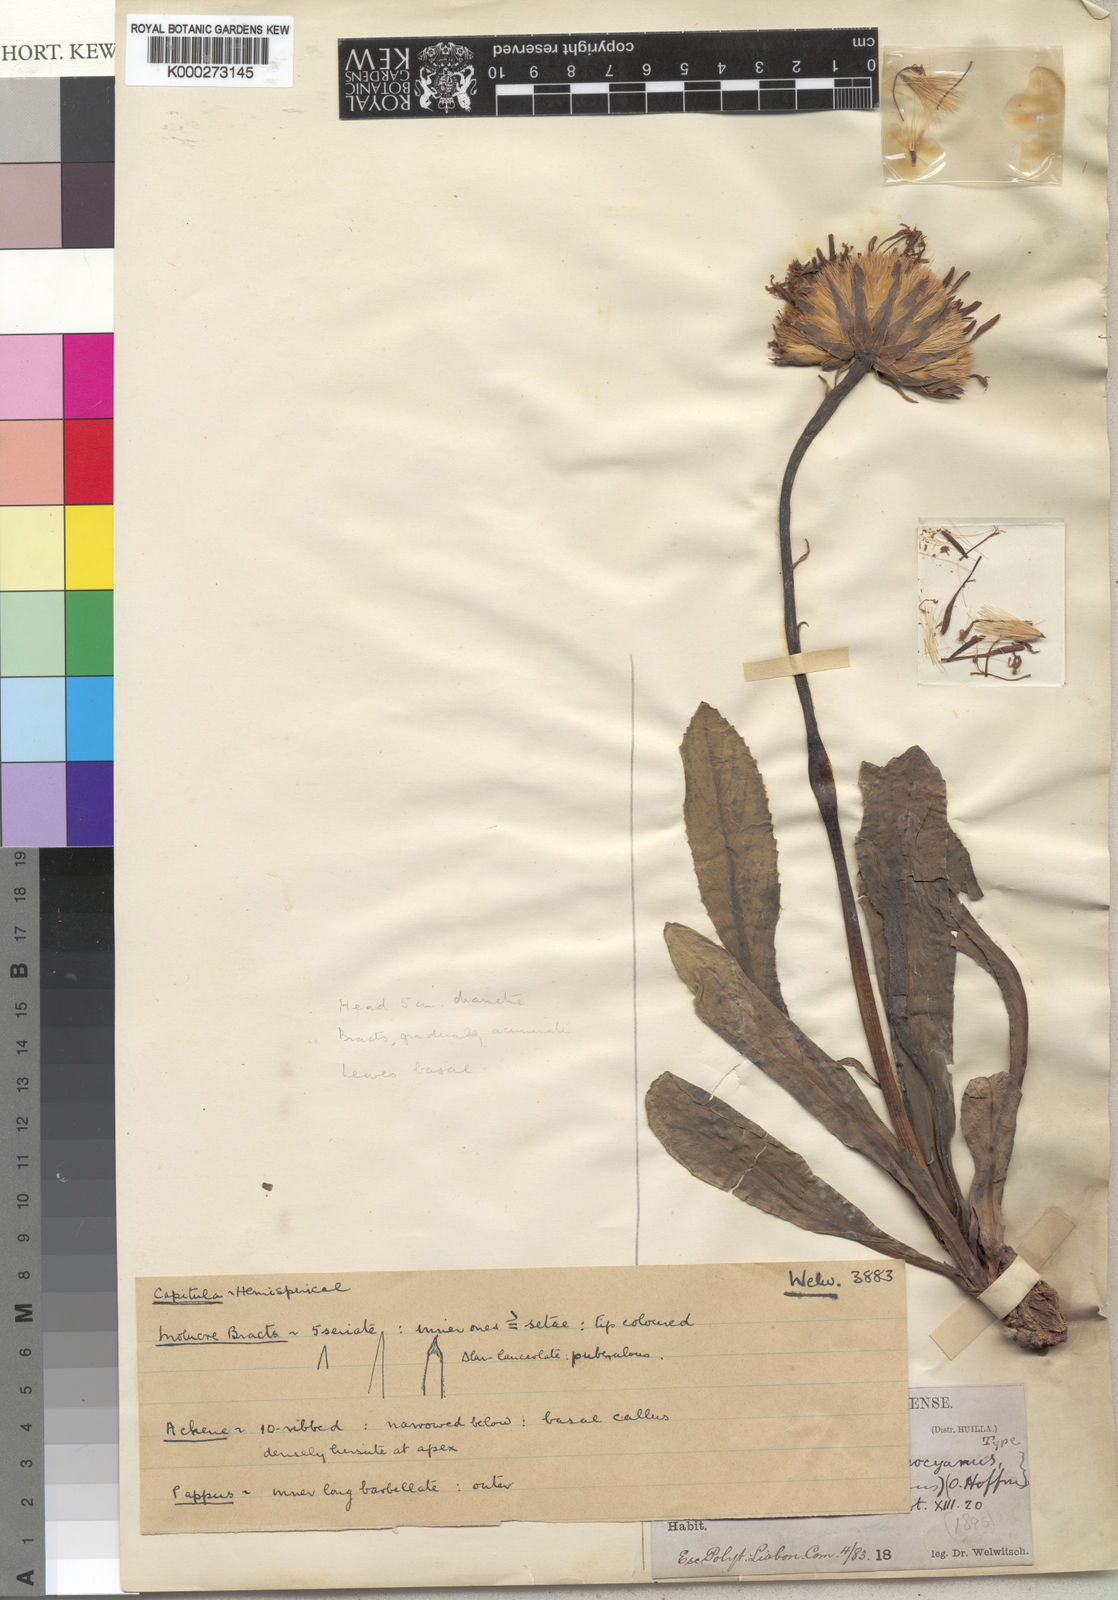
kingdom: Plantae
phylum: Tracheophyta
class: Magnoliopsida
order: Asterales
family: Asteraceae
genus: Linzia
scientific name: Linzia gerberiformis
